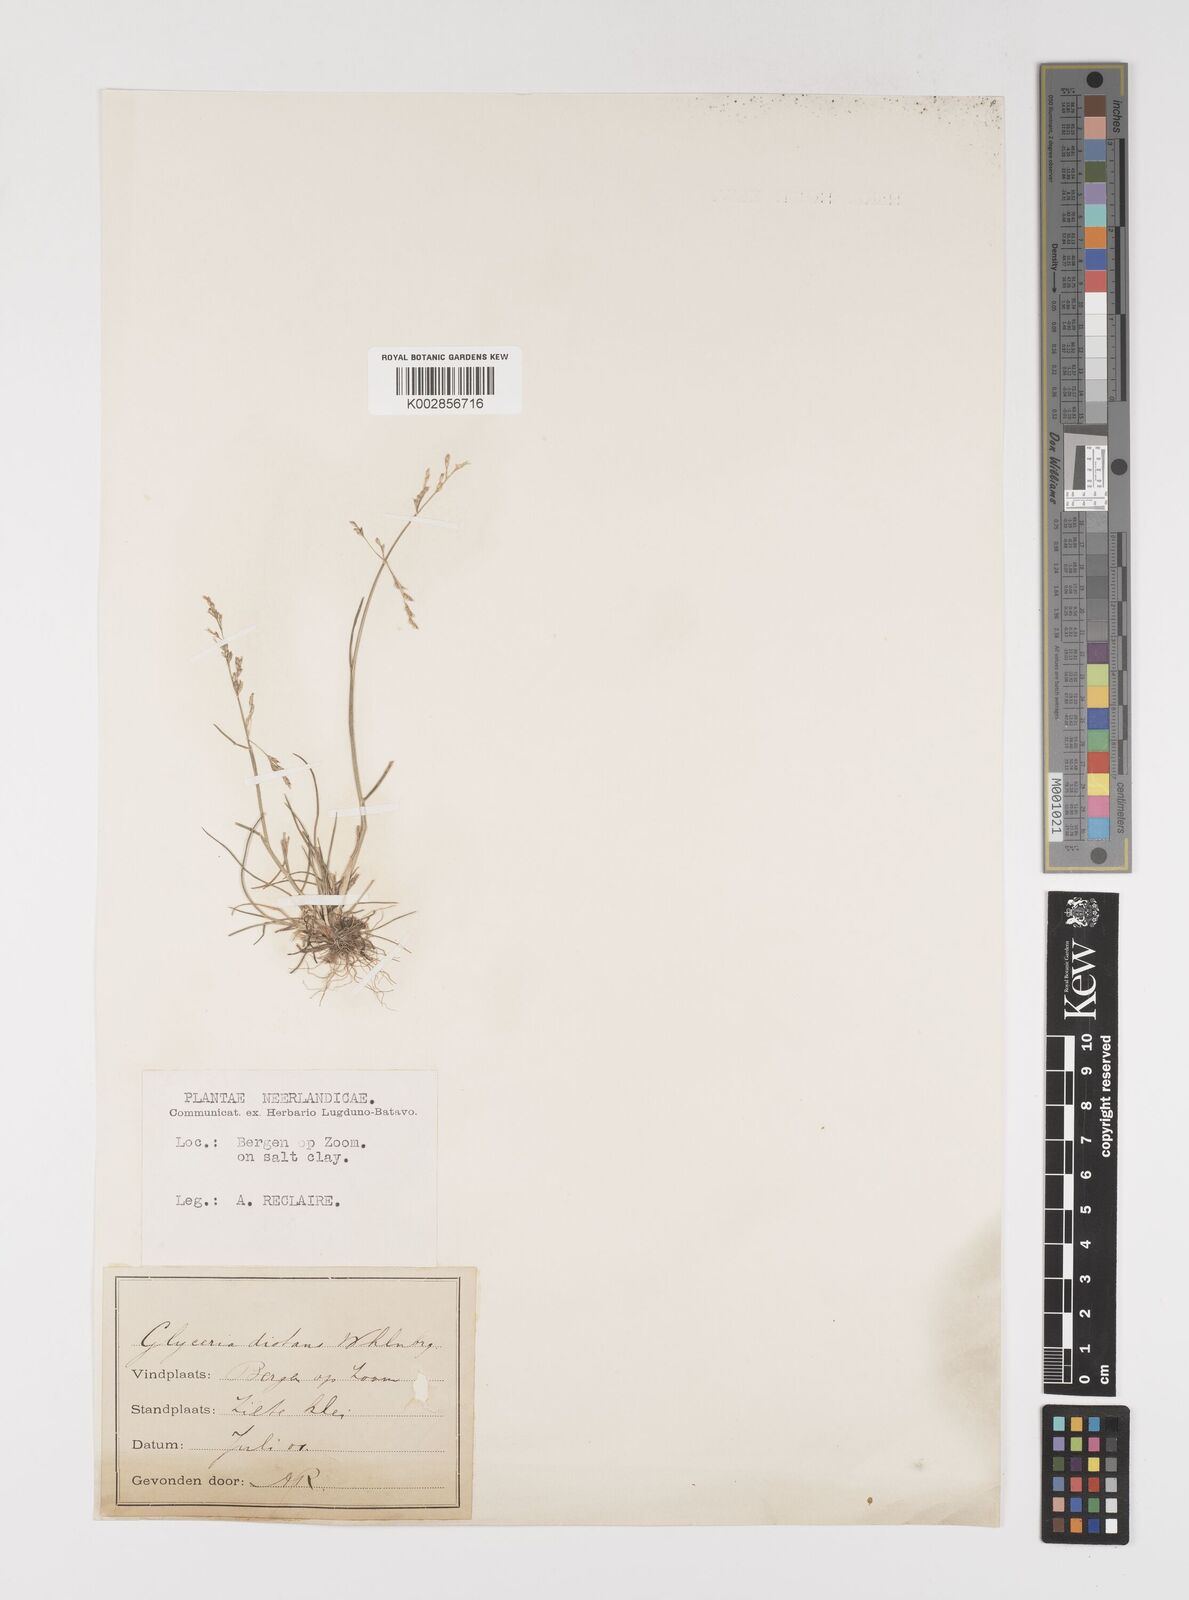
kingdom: Plantae
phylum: Tracheophyta
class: Liliopsida
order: Poales
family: Poaceae
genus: Puccinellia
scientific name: Puccinellia
